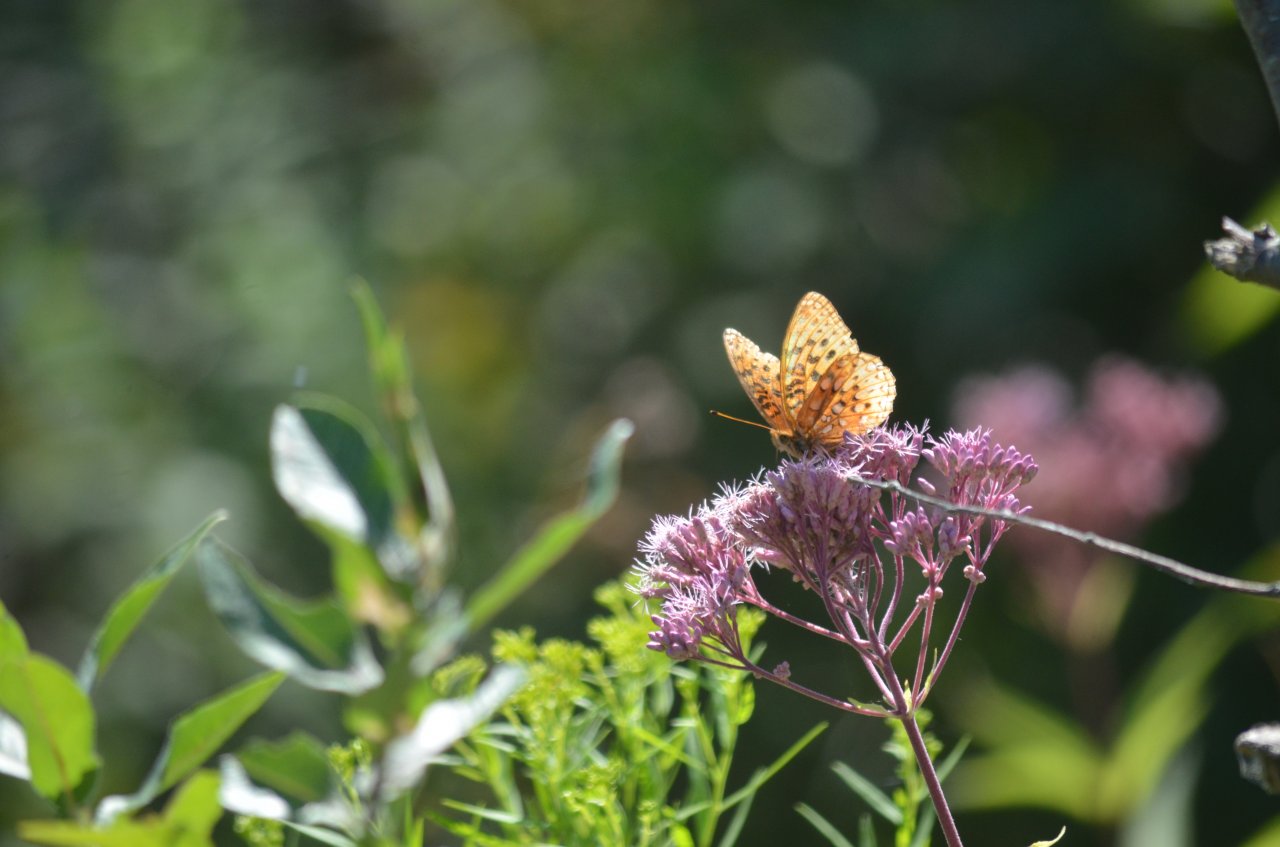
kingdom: Animalia
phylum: Arthropoda
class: Insecta
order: Lepidoptera
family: Nymphalidae
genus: Speyeria
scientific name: Speyeria cybele
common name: Great Spangled Fritillary
